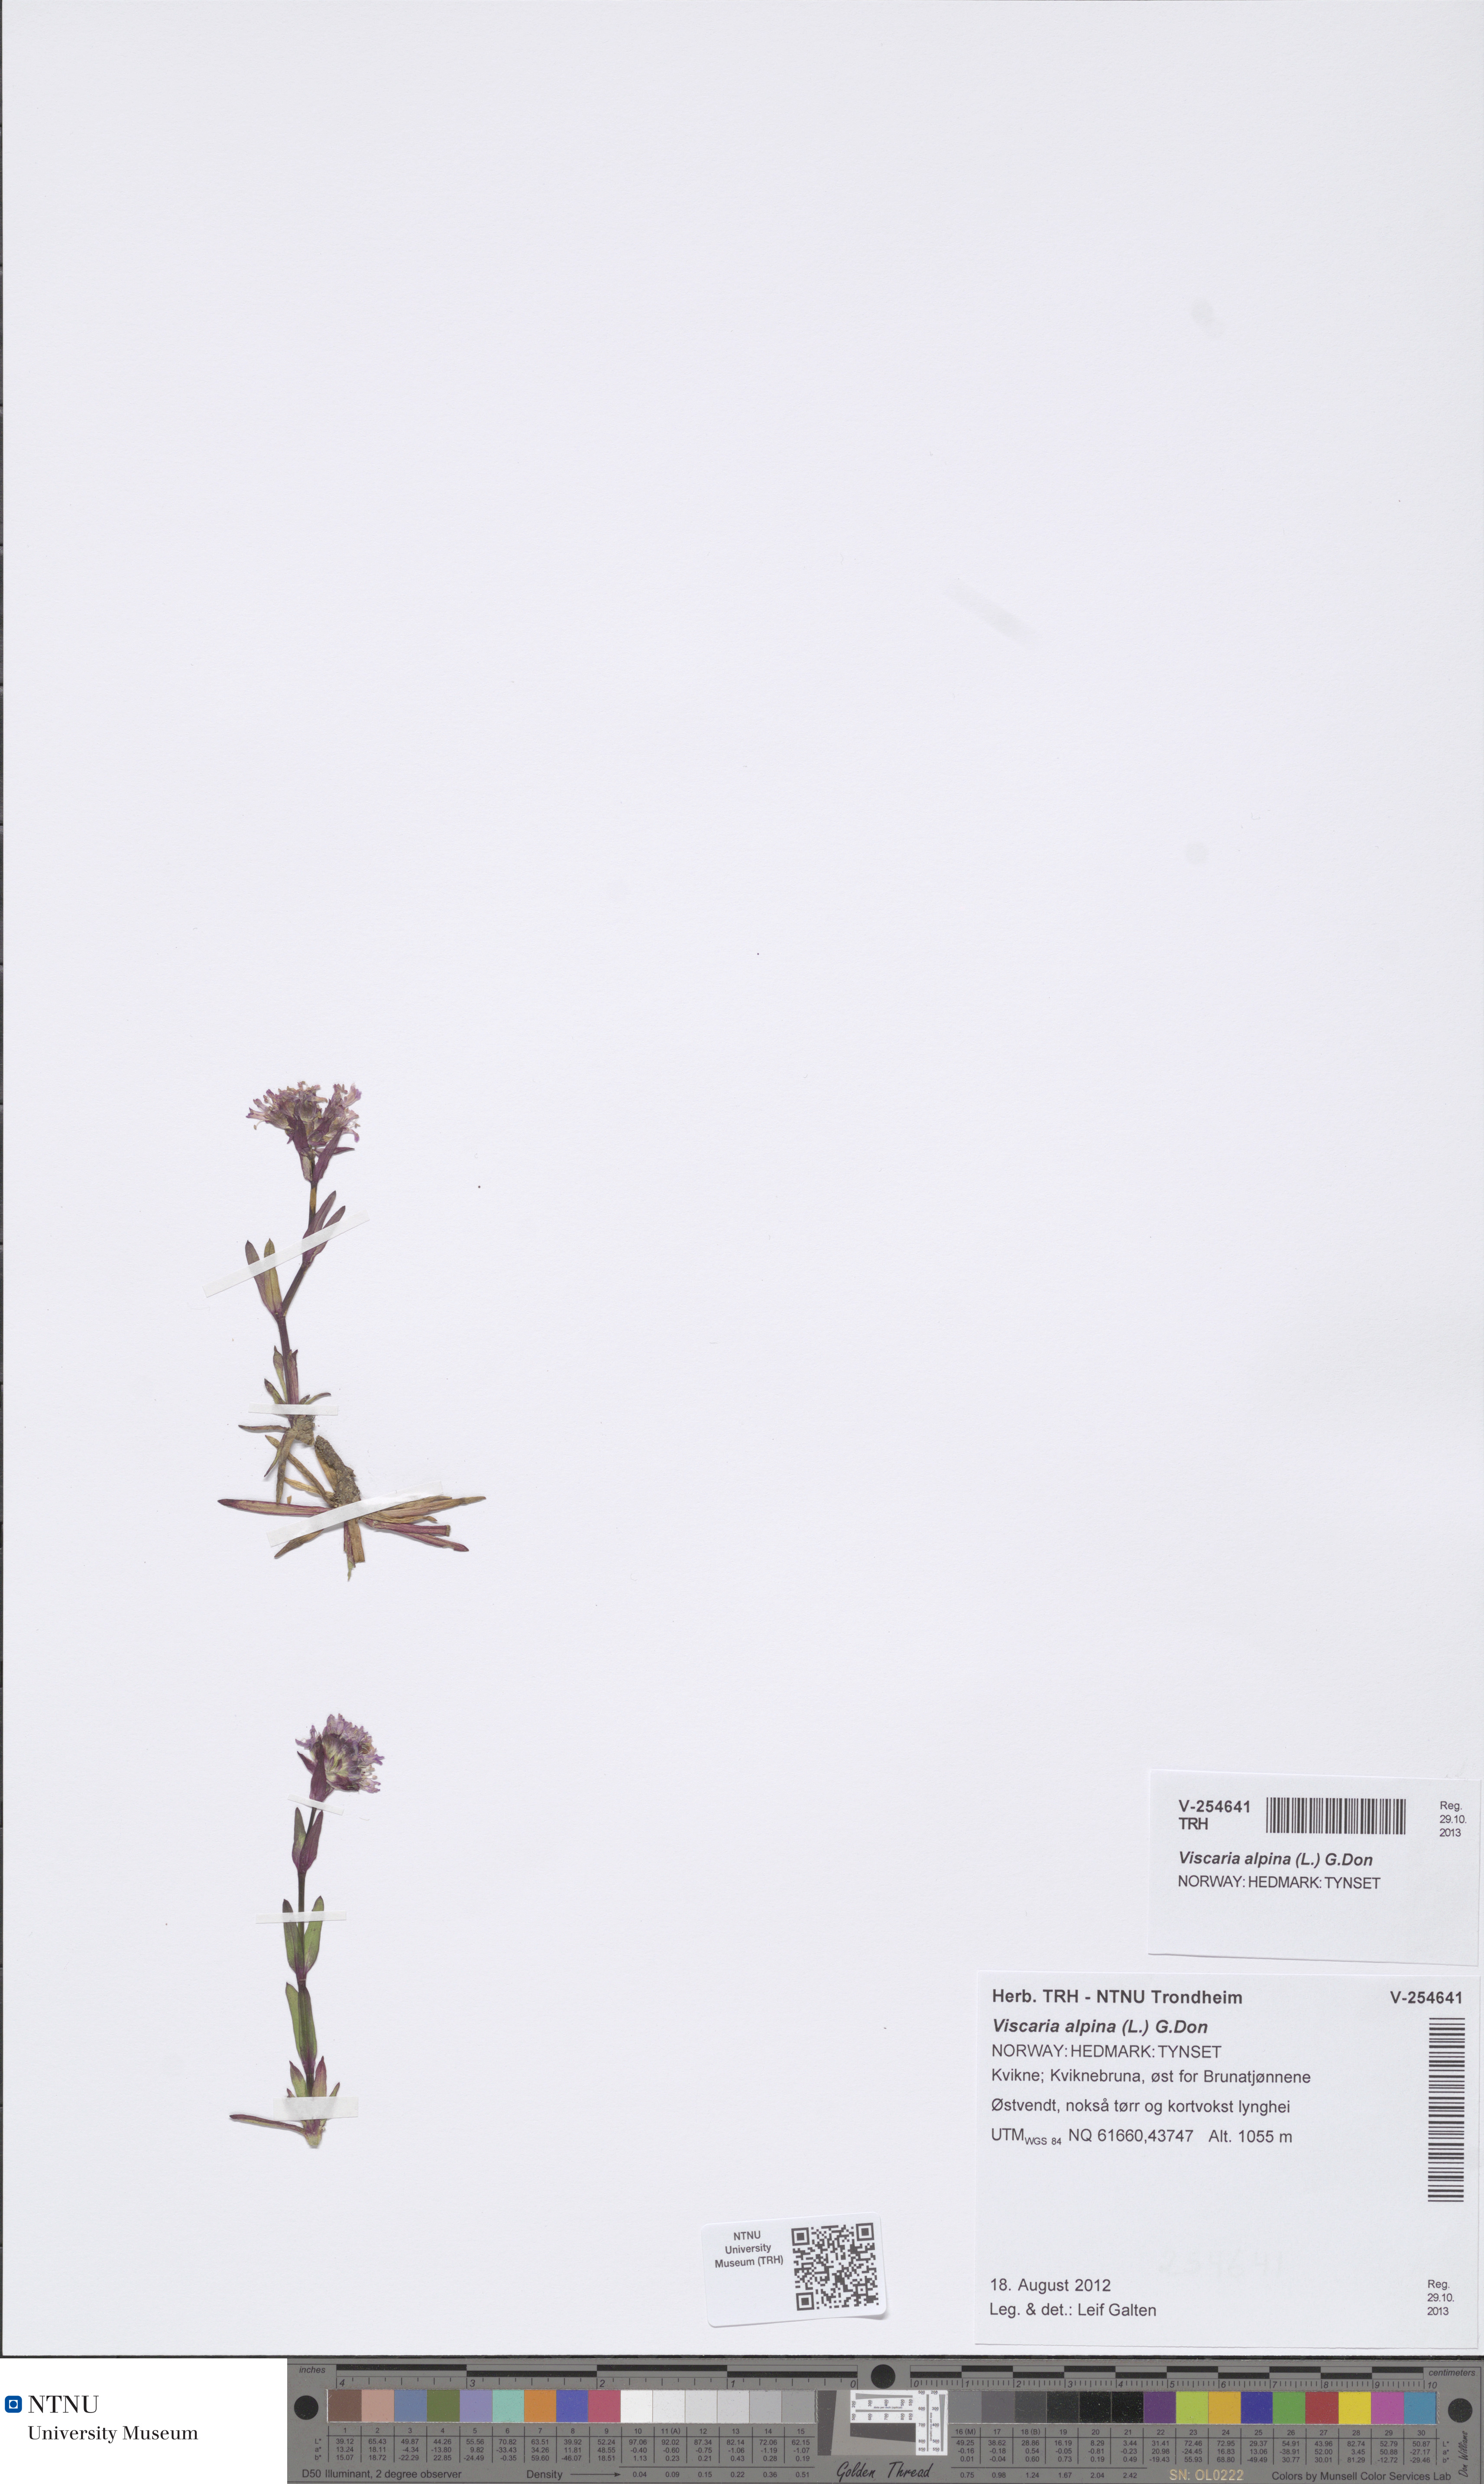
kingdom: Plantae
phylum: Tracheophyta
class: Magnoliopsida
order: Caryophyllales
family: Caryophyllaceae
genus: Viscaria
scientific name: Viscaria alpina
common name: Alpine campion
